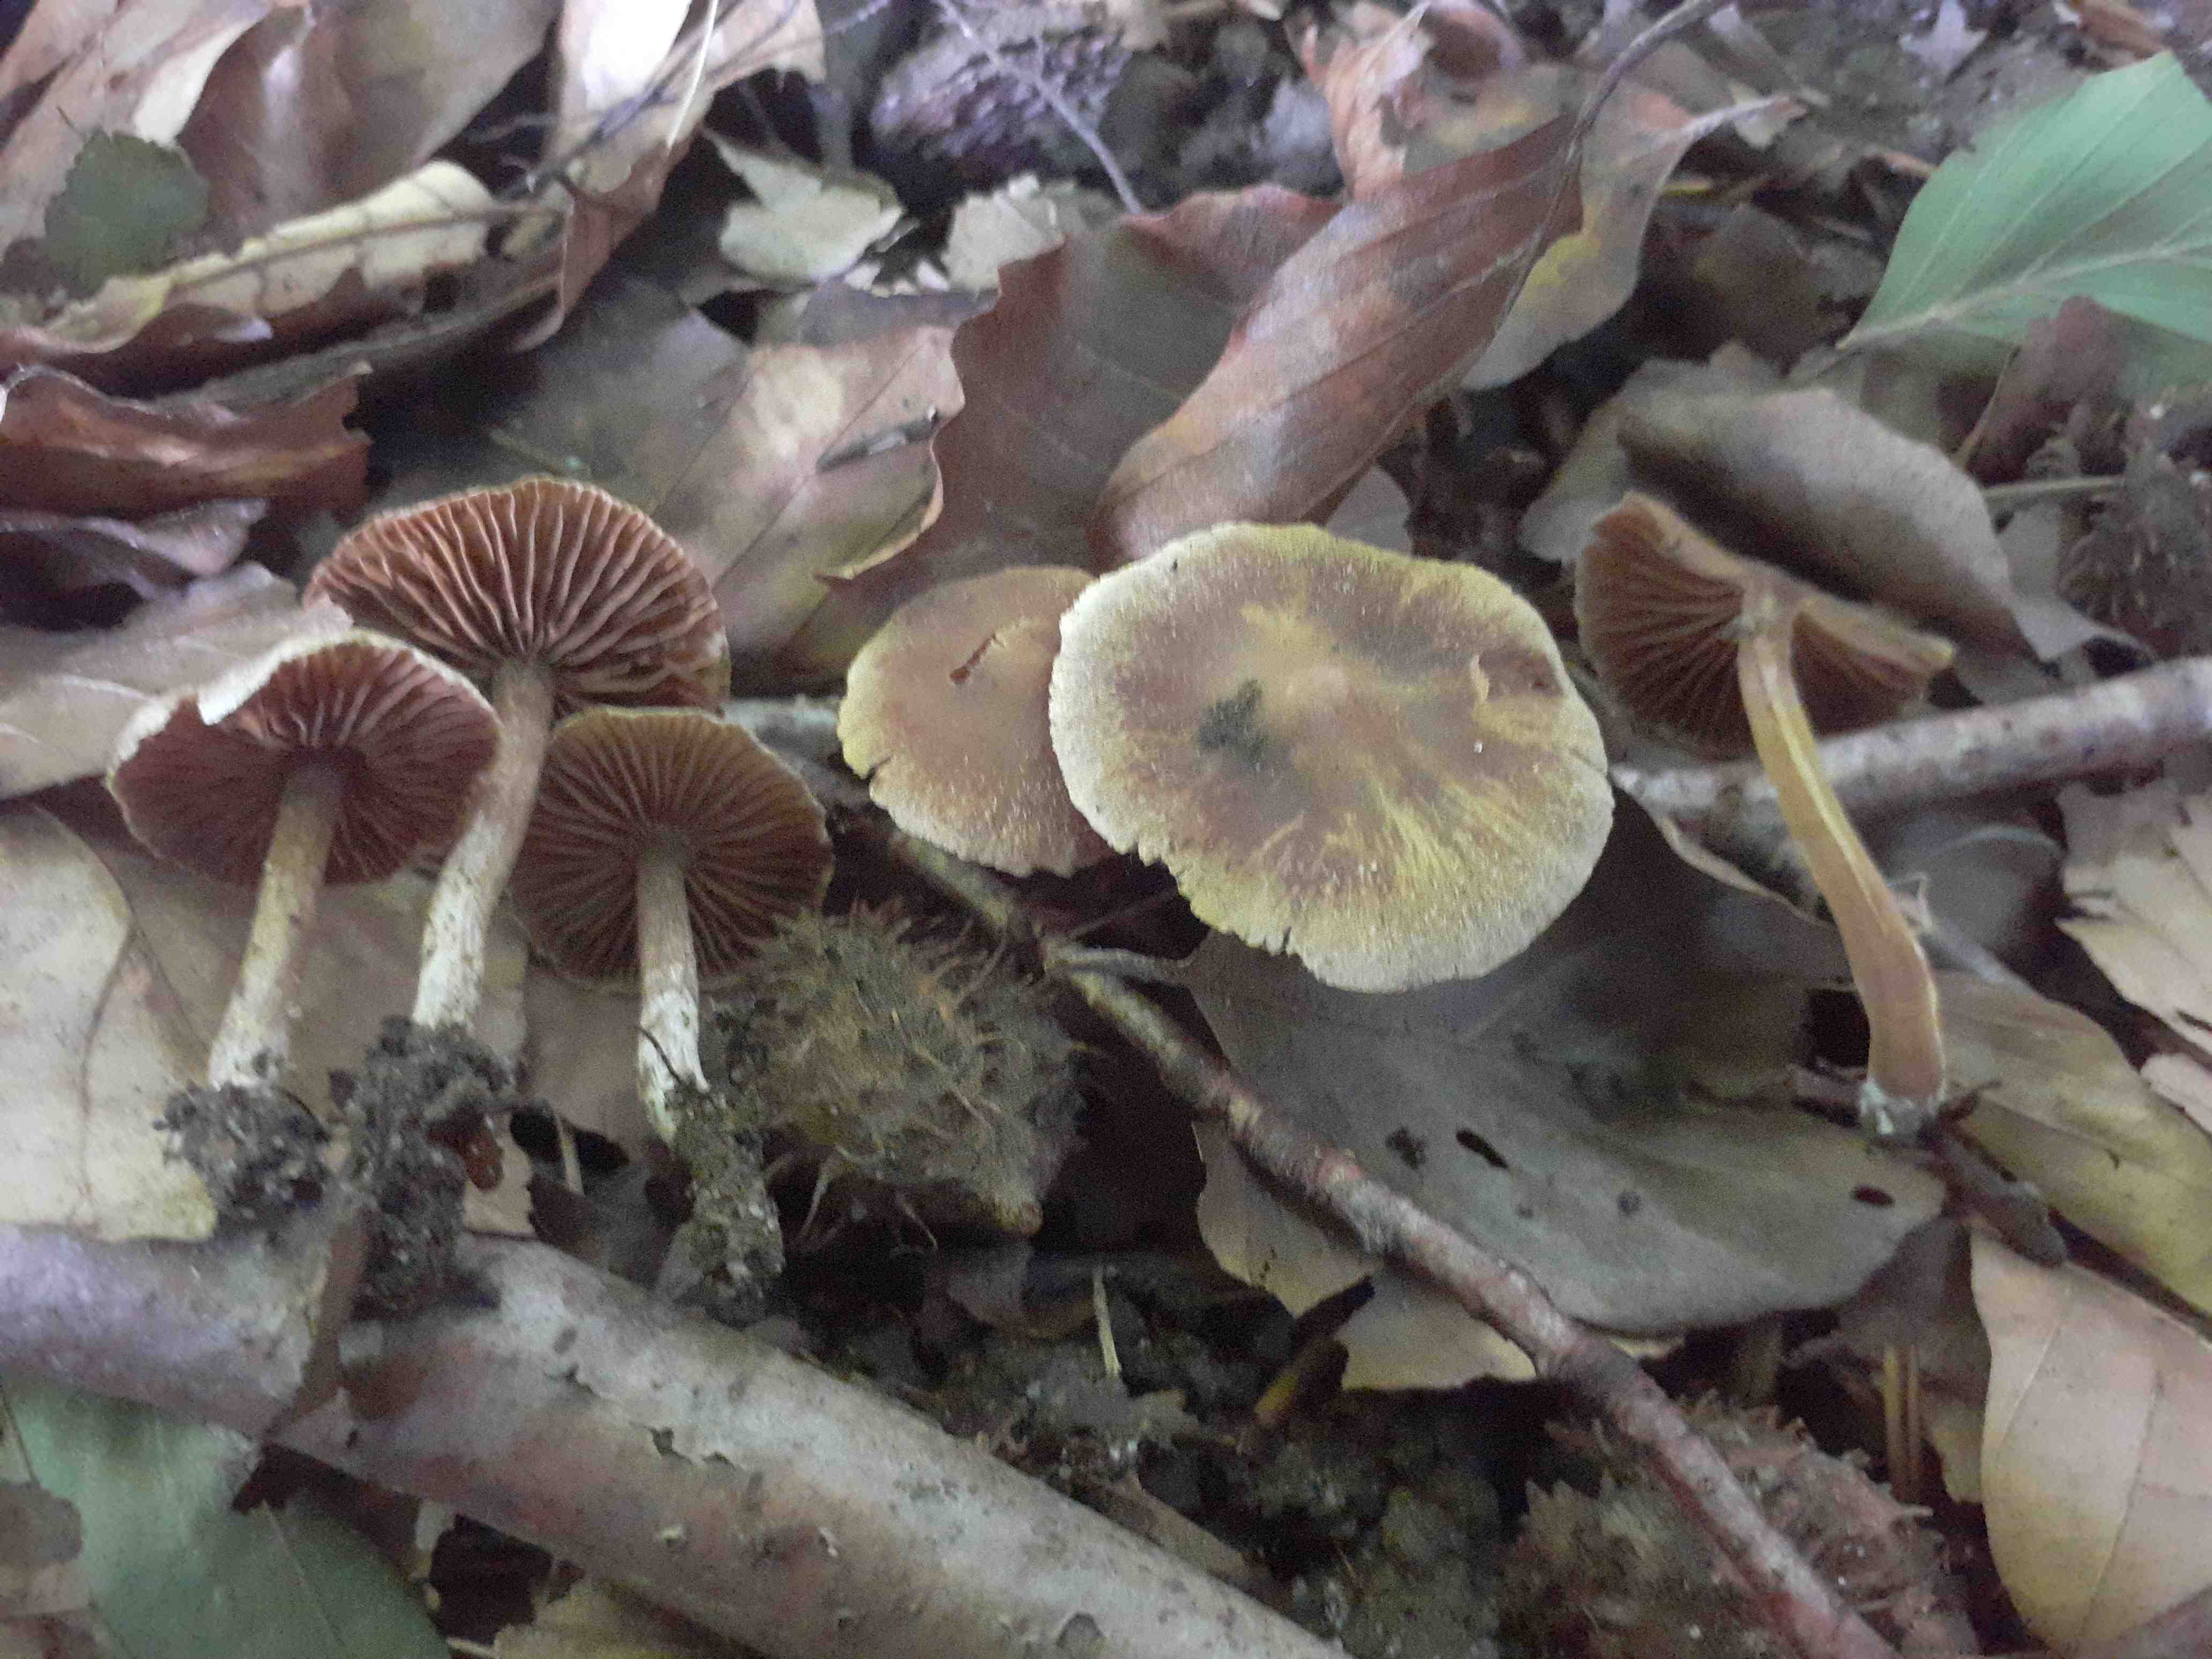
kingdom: Fungi
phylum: Basidiomycota
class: Agaricomycetes
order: Agaricales
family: Cortinariaceae
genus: Cortinarius
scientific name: Cortinarius geraniolens
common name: geranium-slørhat
